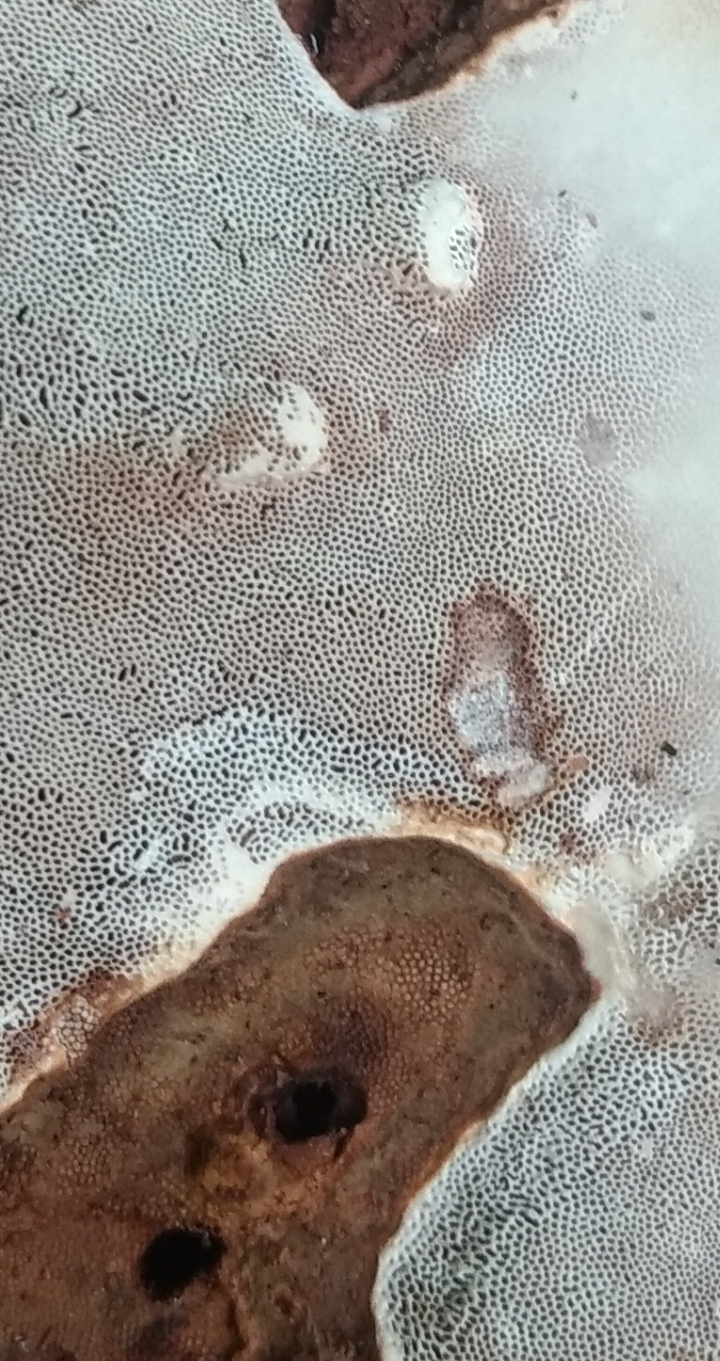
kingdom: Fungi
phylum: Basidiomycota
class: Agaricomycetes
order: Polyporales
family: Polyporaceae
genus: Ganoderma
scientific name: Ganoderma applanatum
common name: flad lakporesvamp
